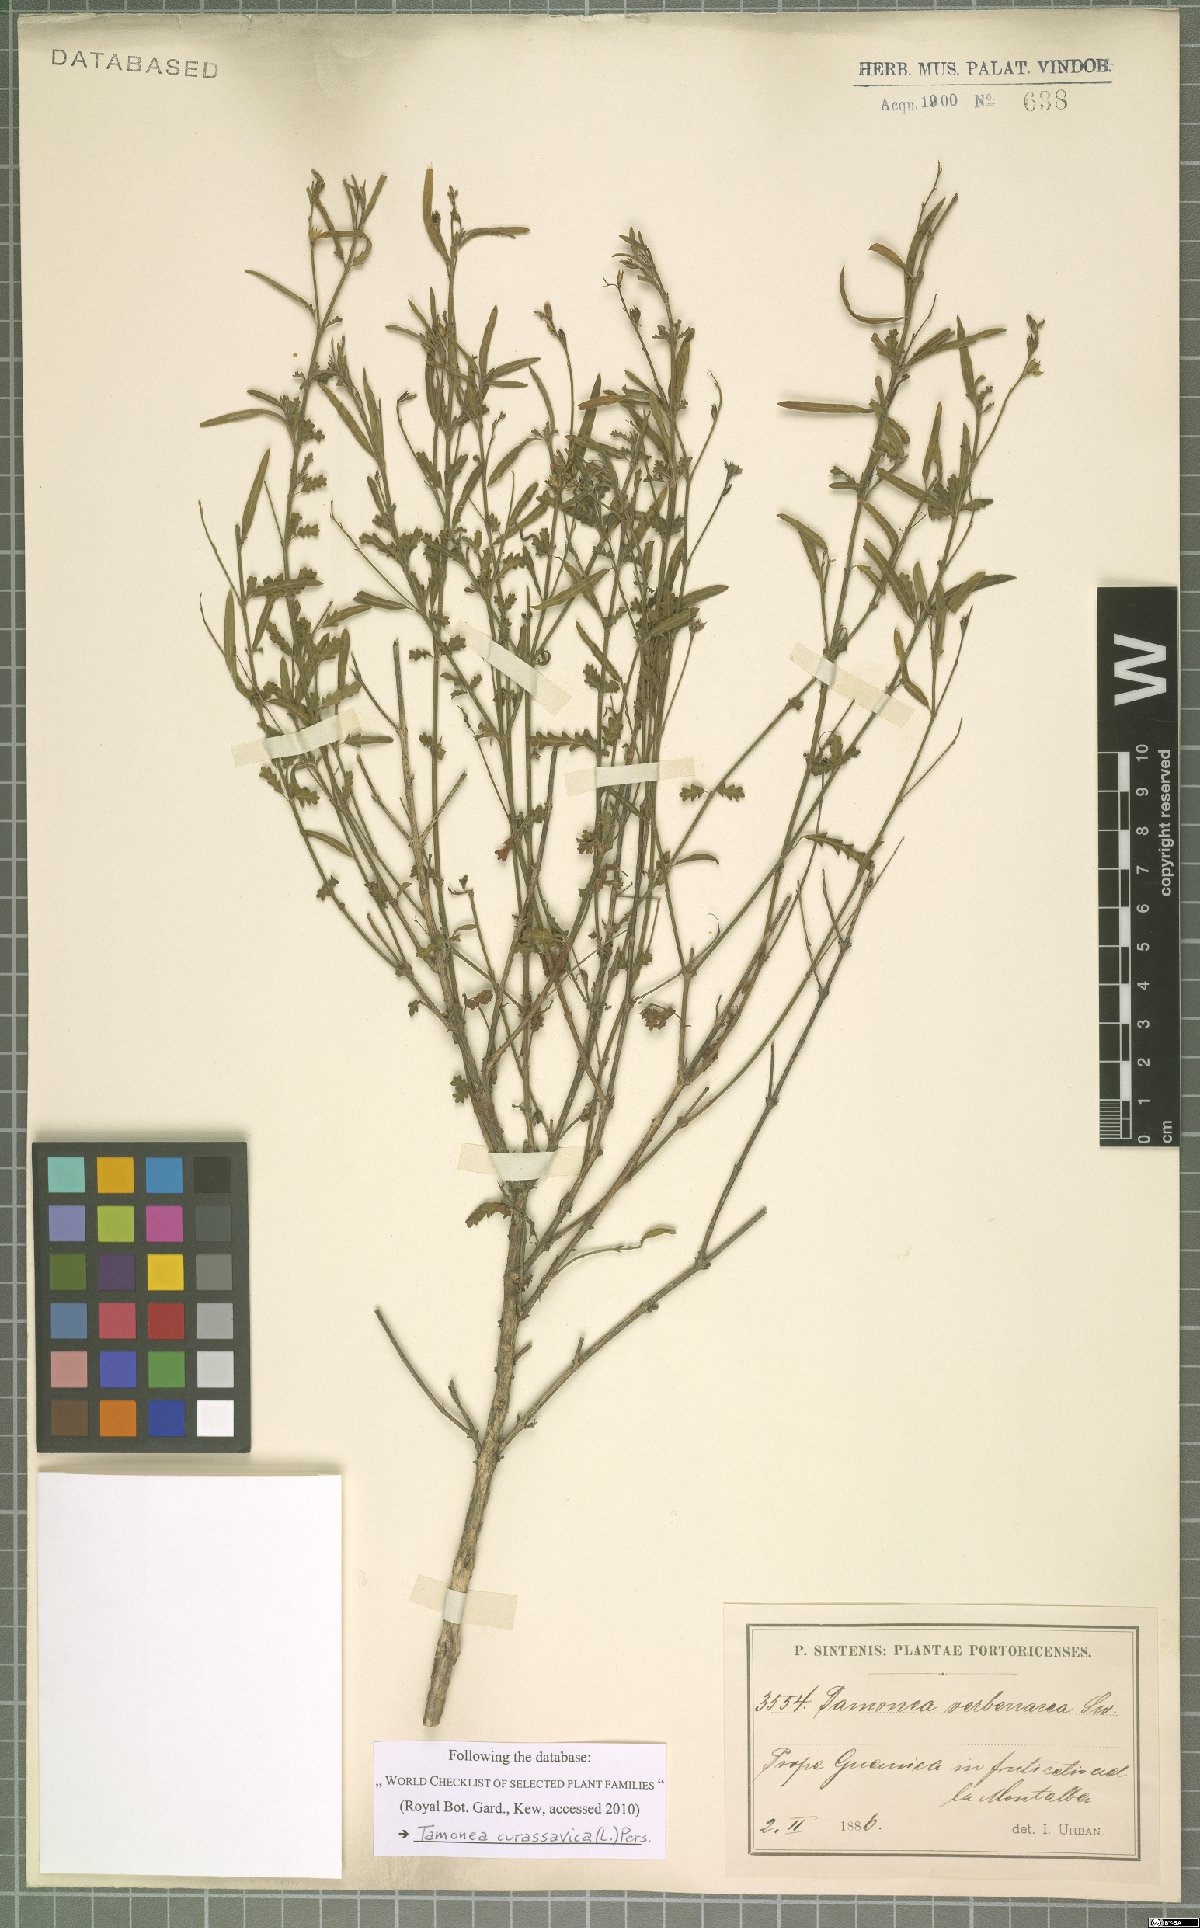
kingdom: Plantae
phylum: Tracheophyta
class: Magnoliopsida
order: Lamiales
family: Verbenaceae
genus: Tamonea
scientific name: Tamonea curassavica
